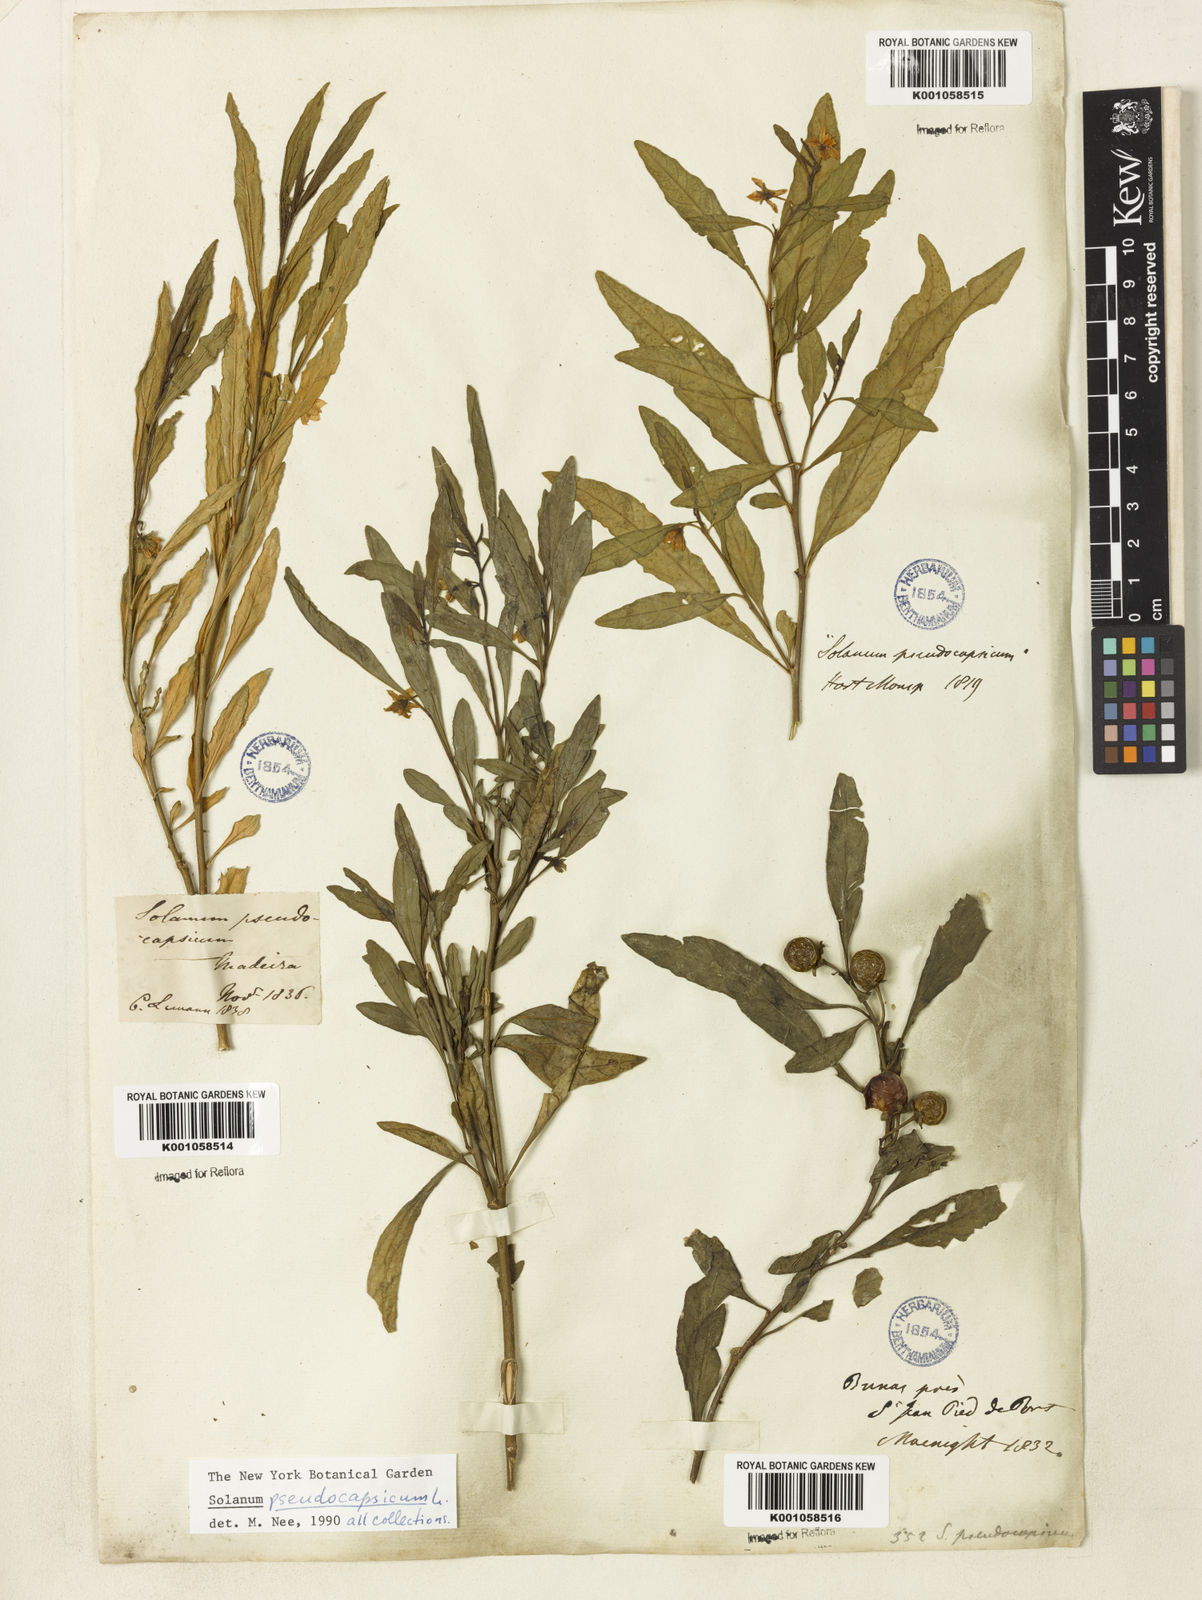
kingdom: Plantae
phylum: Tracheophyta
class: Magnoliopsida
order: Solanales
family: Solanaceae
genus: Solanum
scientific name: Solanum pseudocapsicum
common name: Jerusalem cherry
